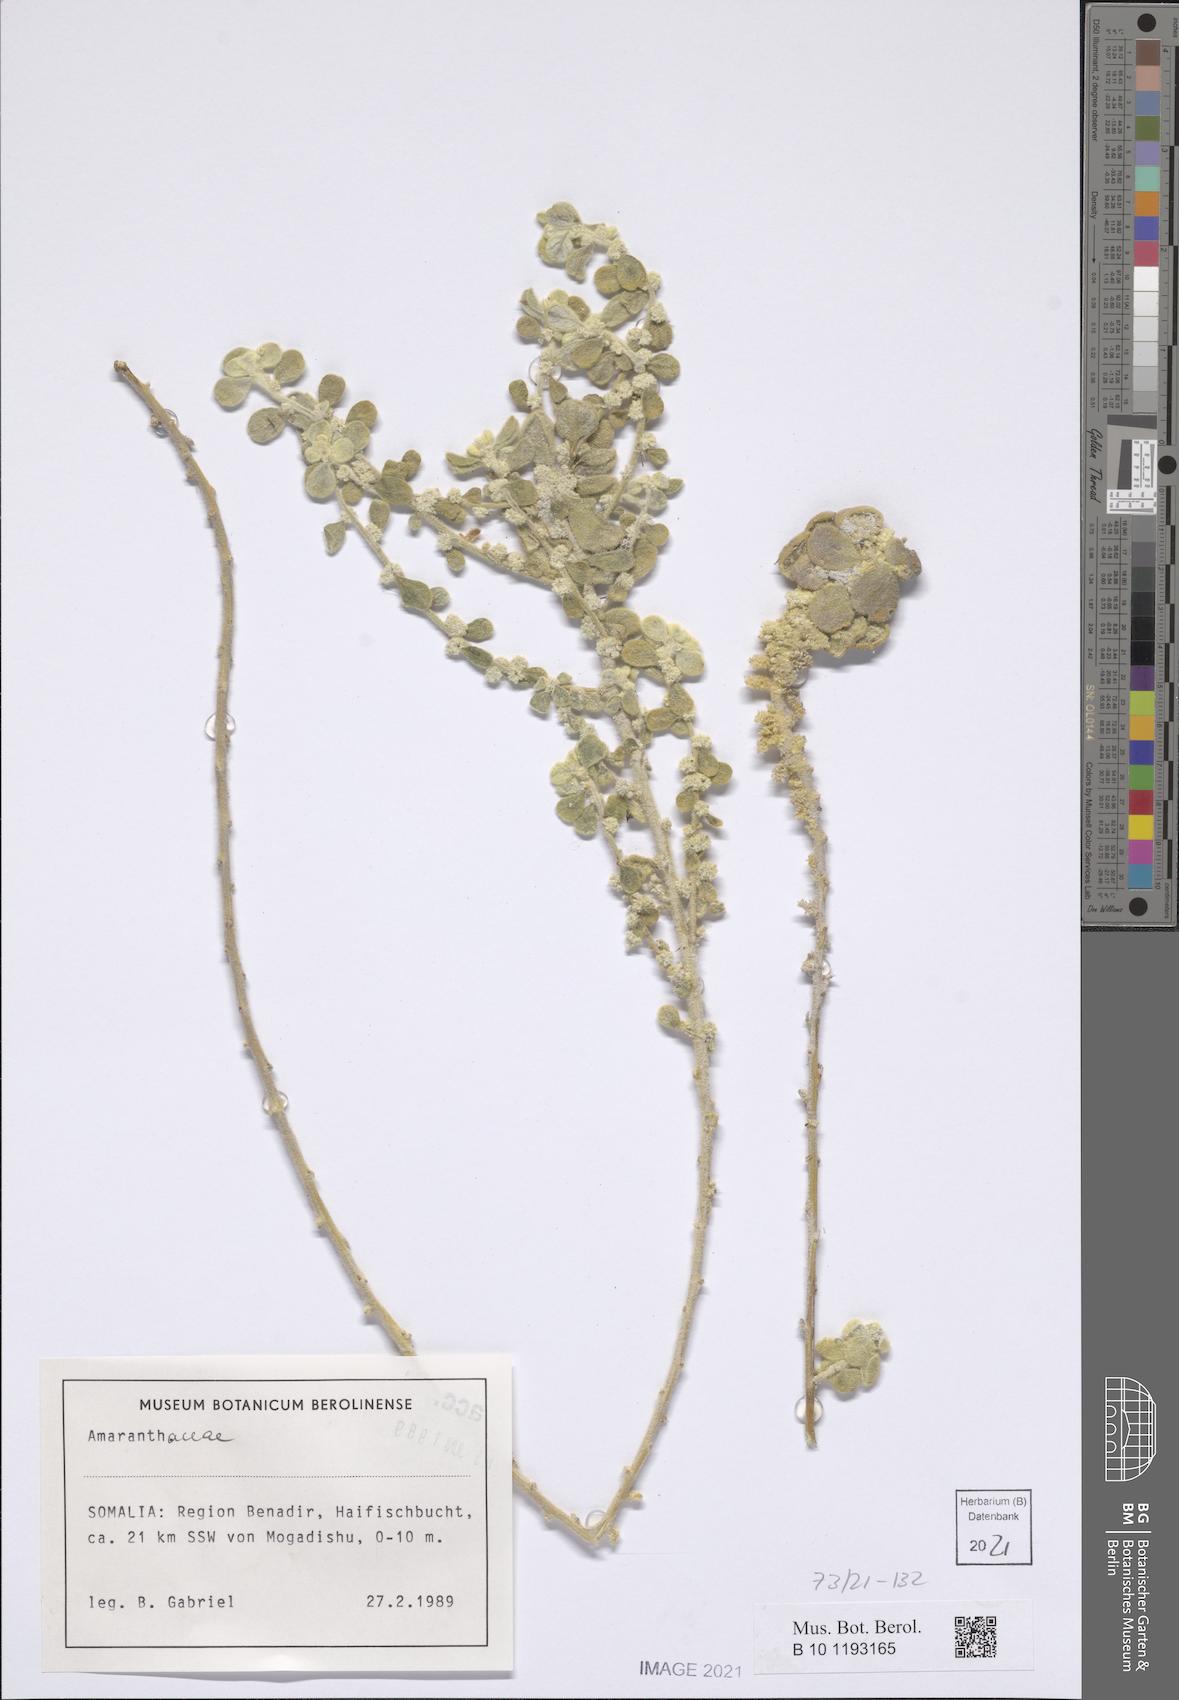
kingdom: Plantae
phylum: Tracheophyta
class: Magnoliopsida
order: Caryophyllales
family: Amaranthaceae
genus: Ouret
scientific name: Ouret lanata
